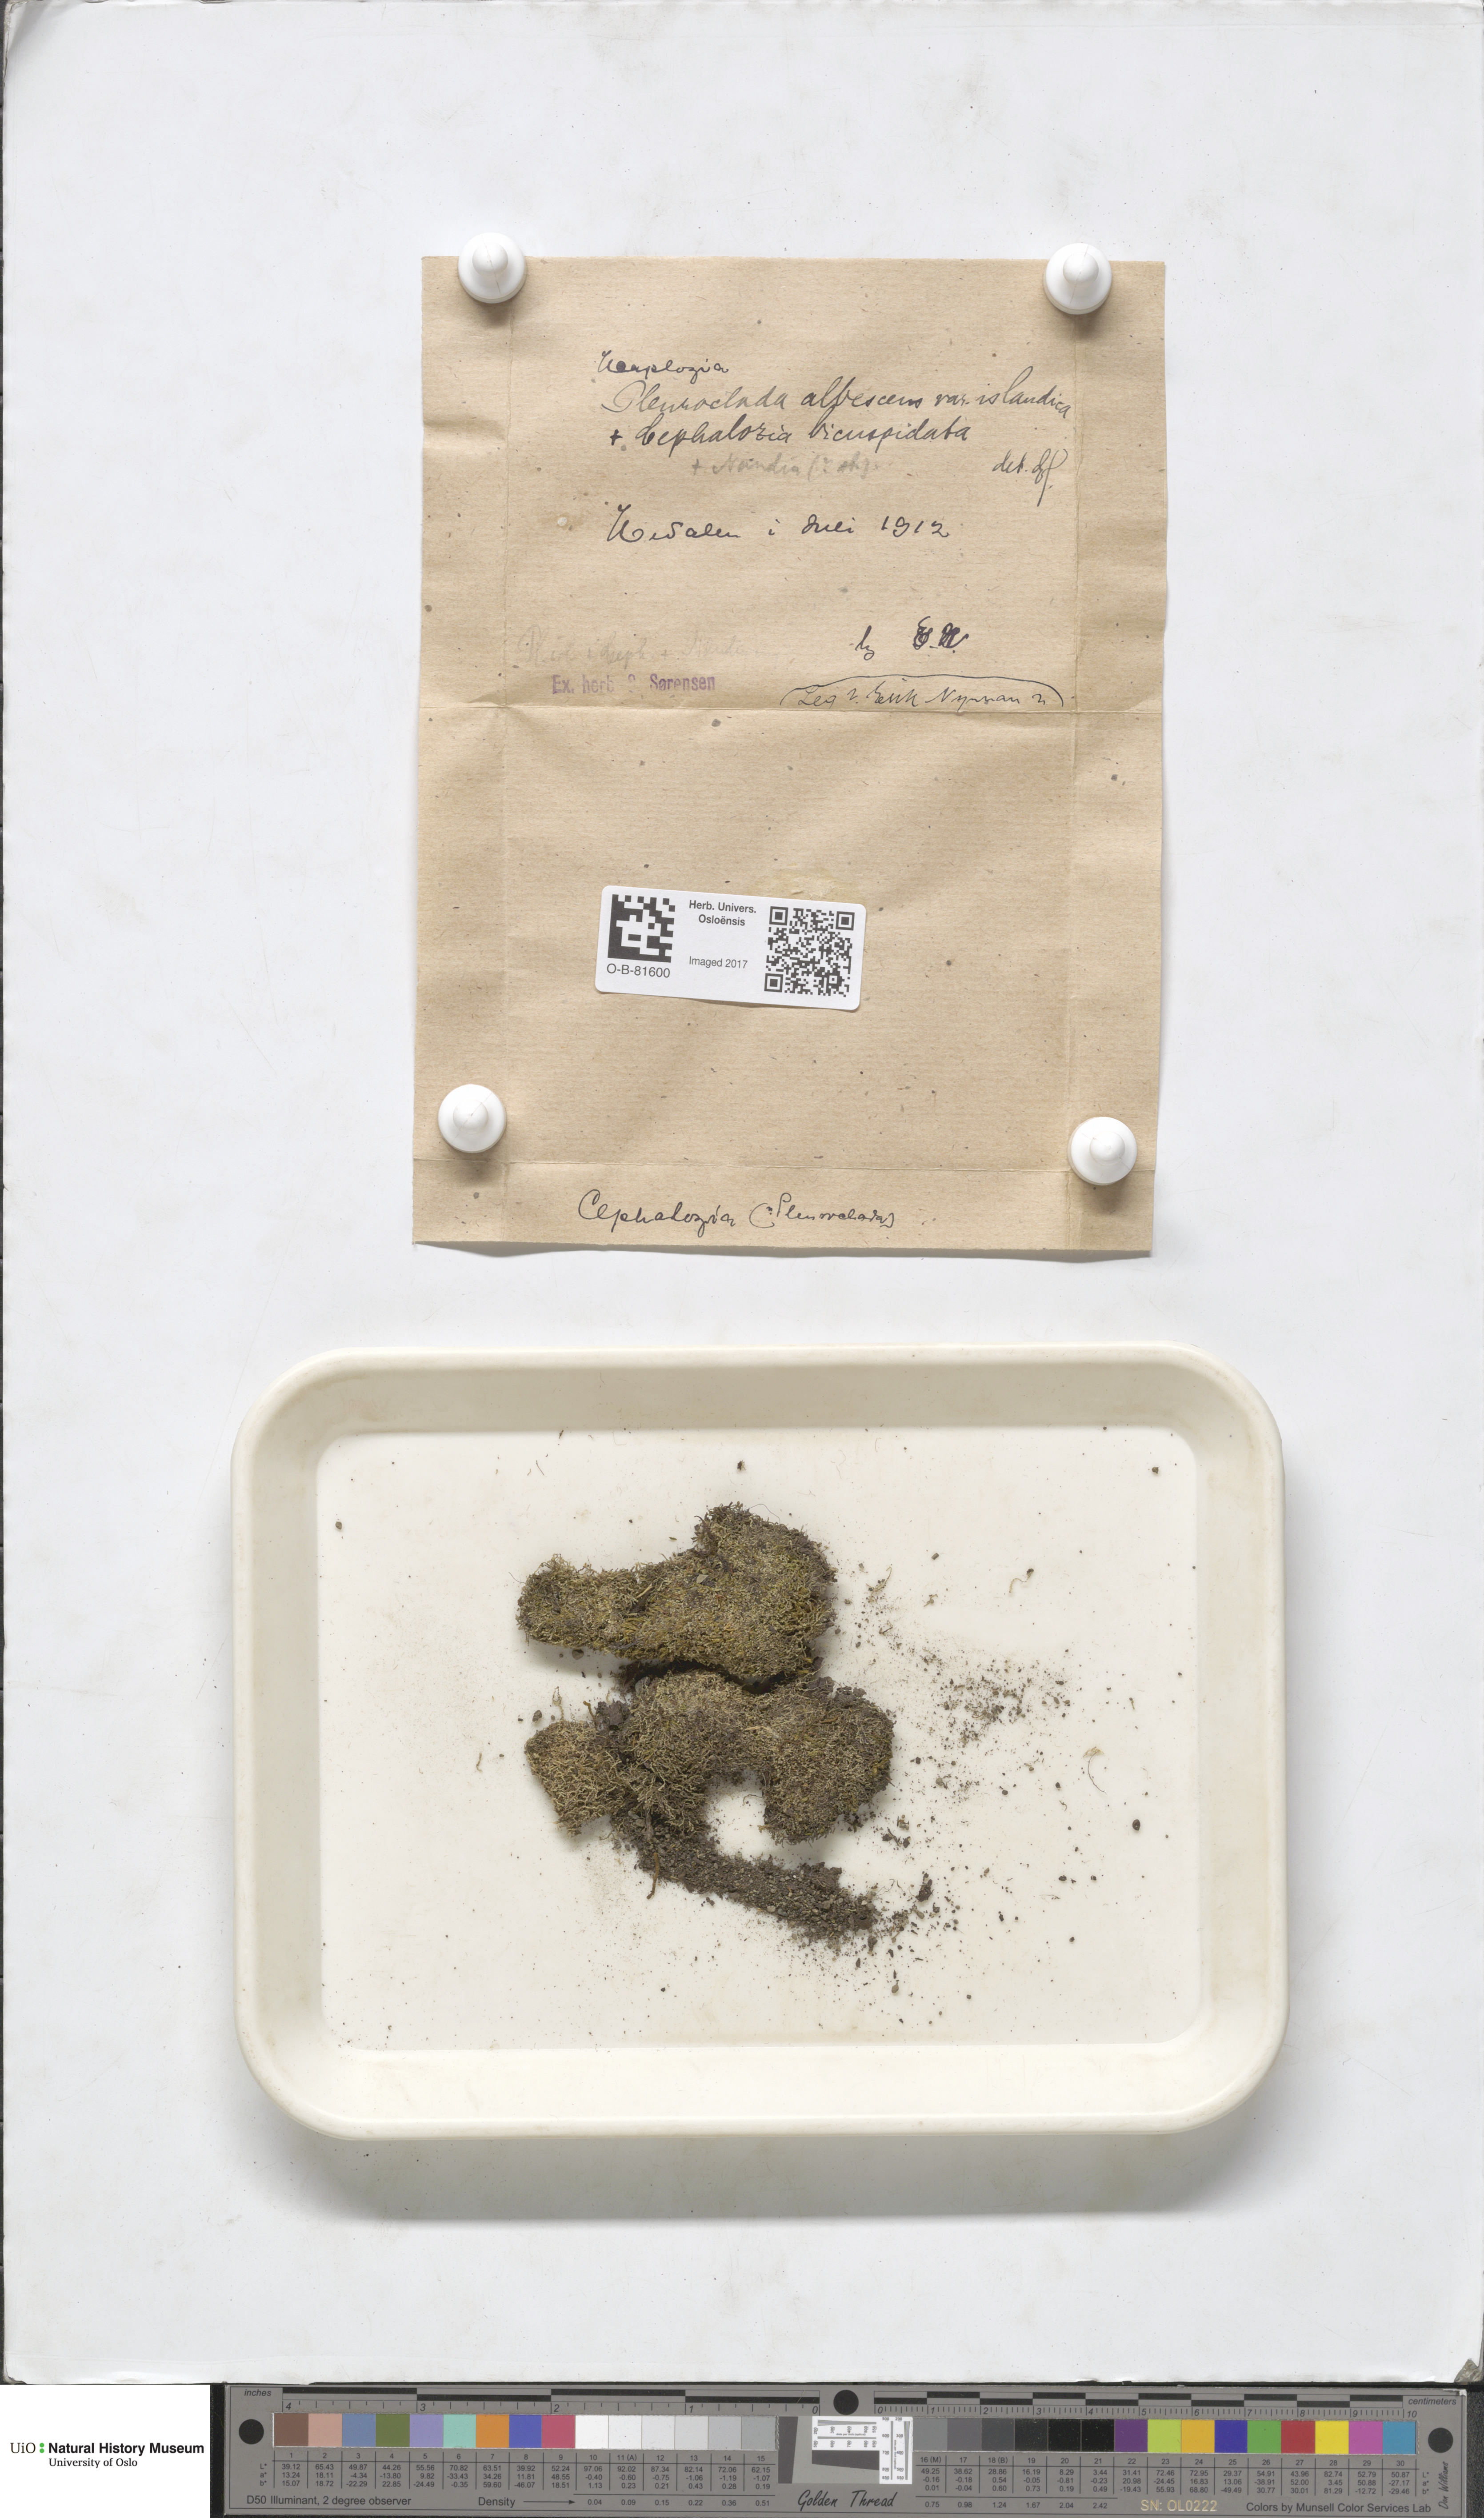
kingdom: Plantae
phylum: Marchantiophyta
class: Jungermanniopsida
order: Jungermanniales
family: Cephaloziaceae
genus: Fuscocephaloziopsis
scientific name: Fuscocephaloziopsis albescens
